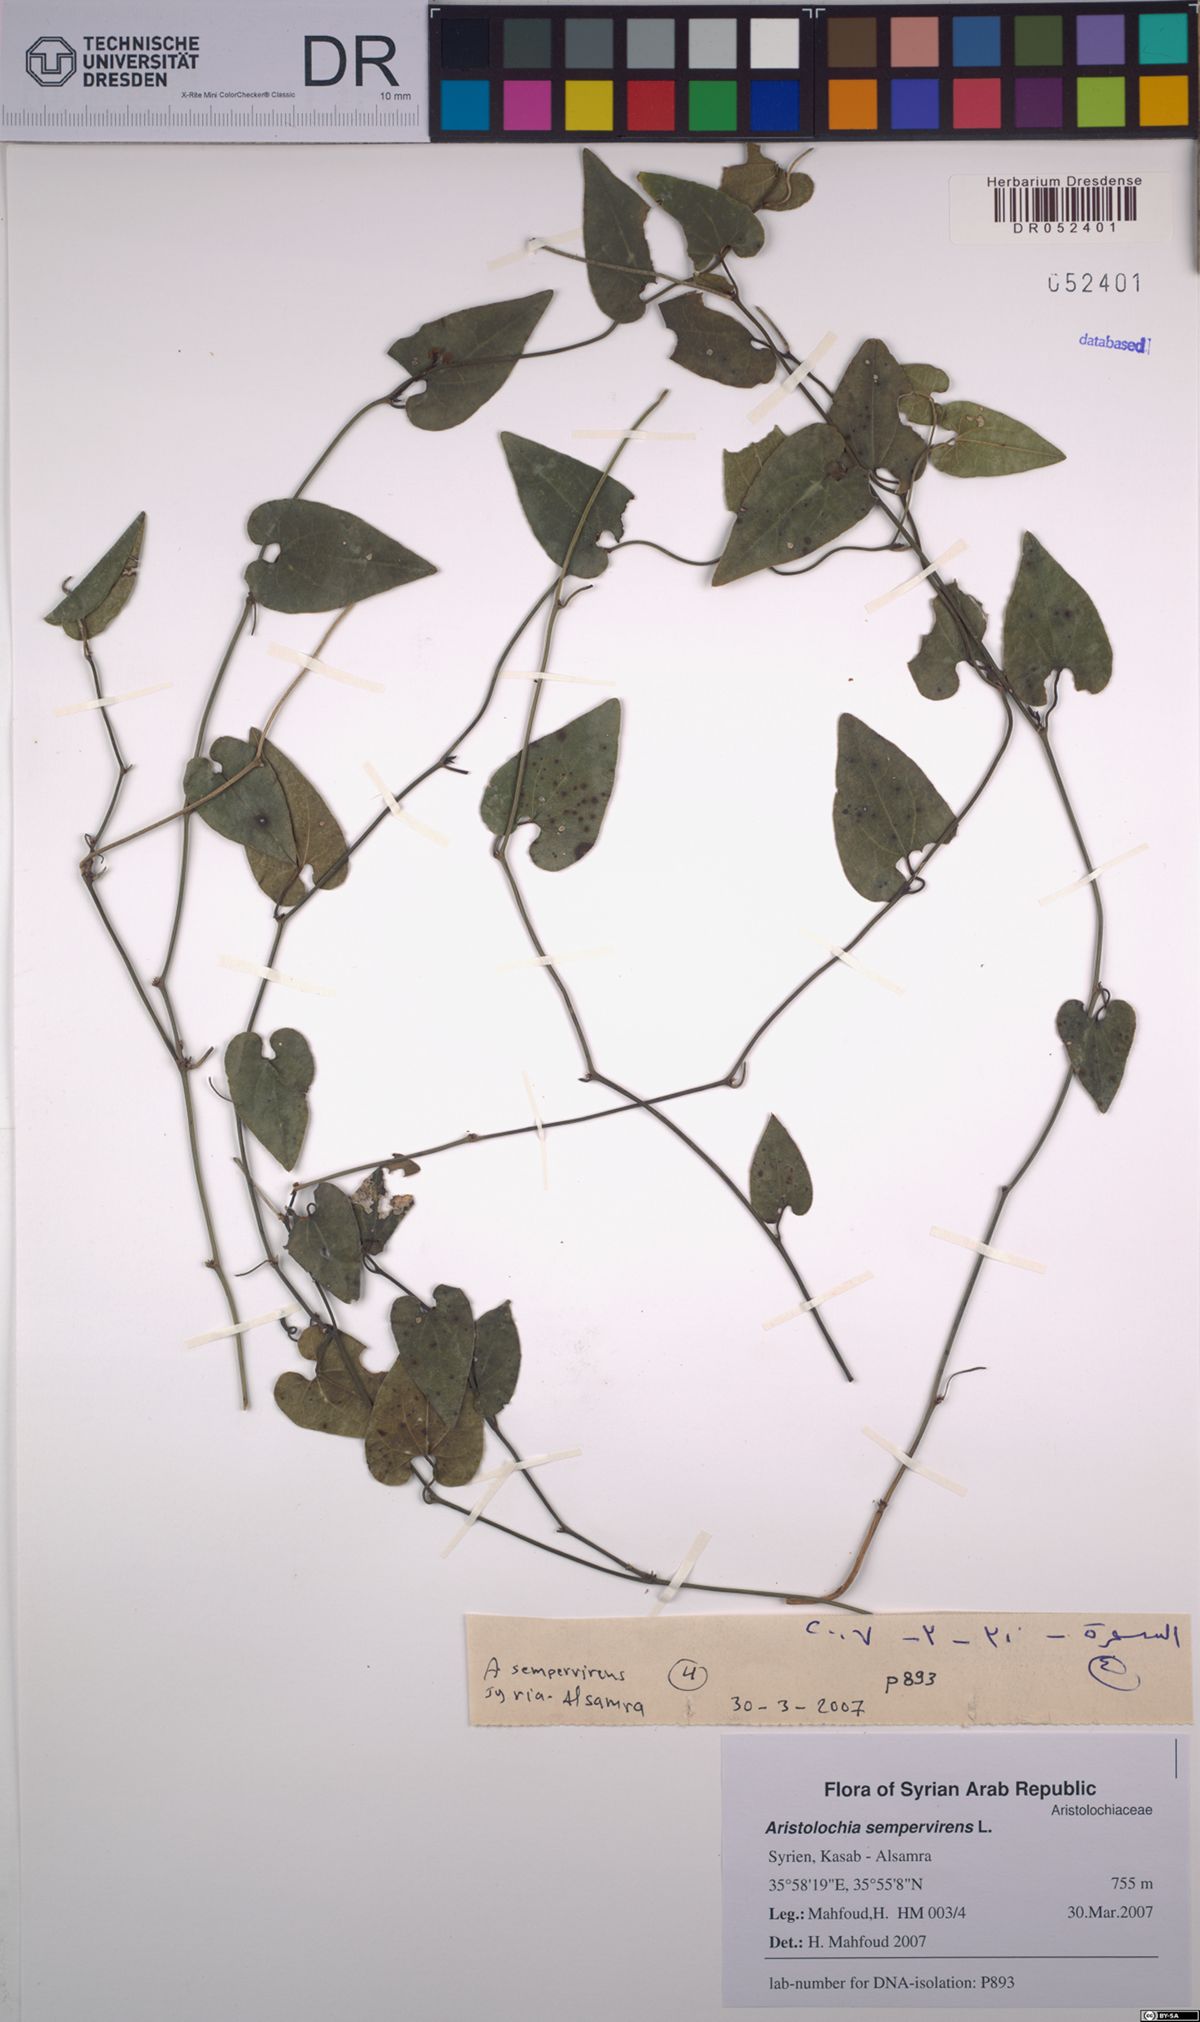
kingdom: Plantae
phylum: Tracheophyta
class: Magnoliopsida
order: Piperales
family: Aristolochiaceae
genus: Aristolochia
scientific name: Aristolochia sempervirens
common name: Long birthwort
